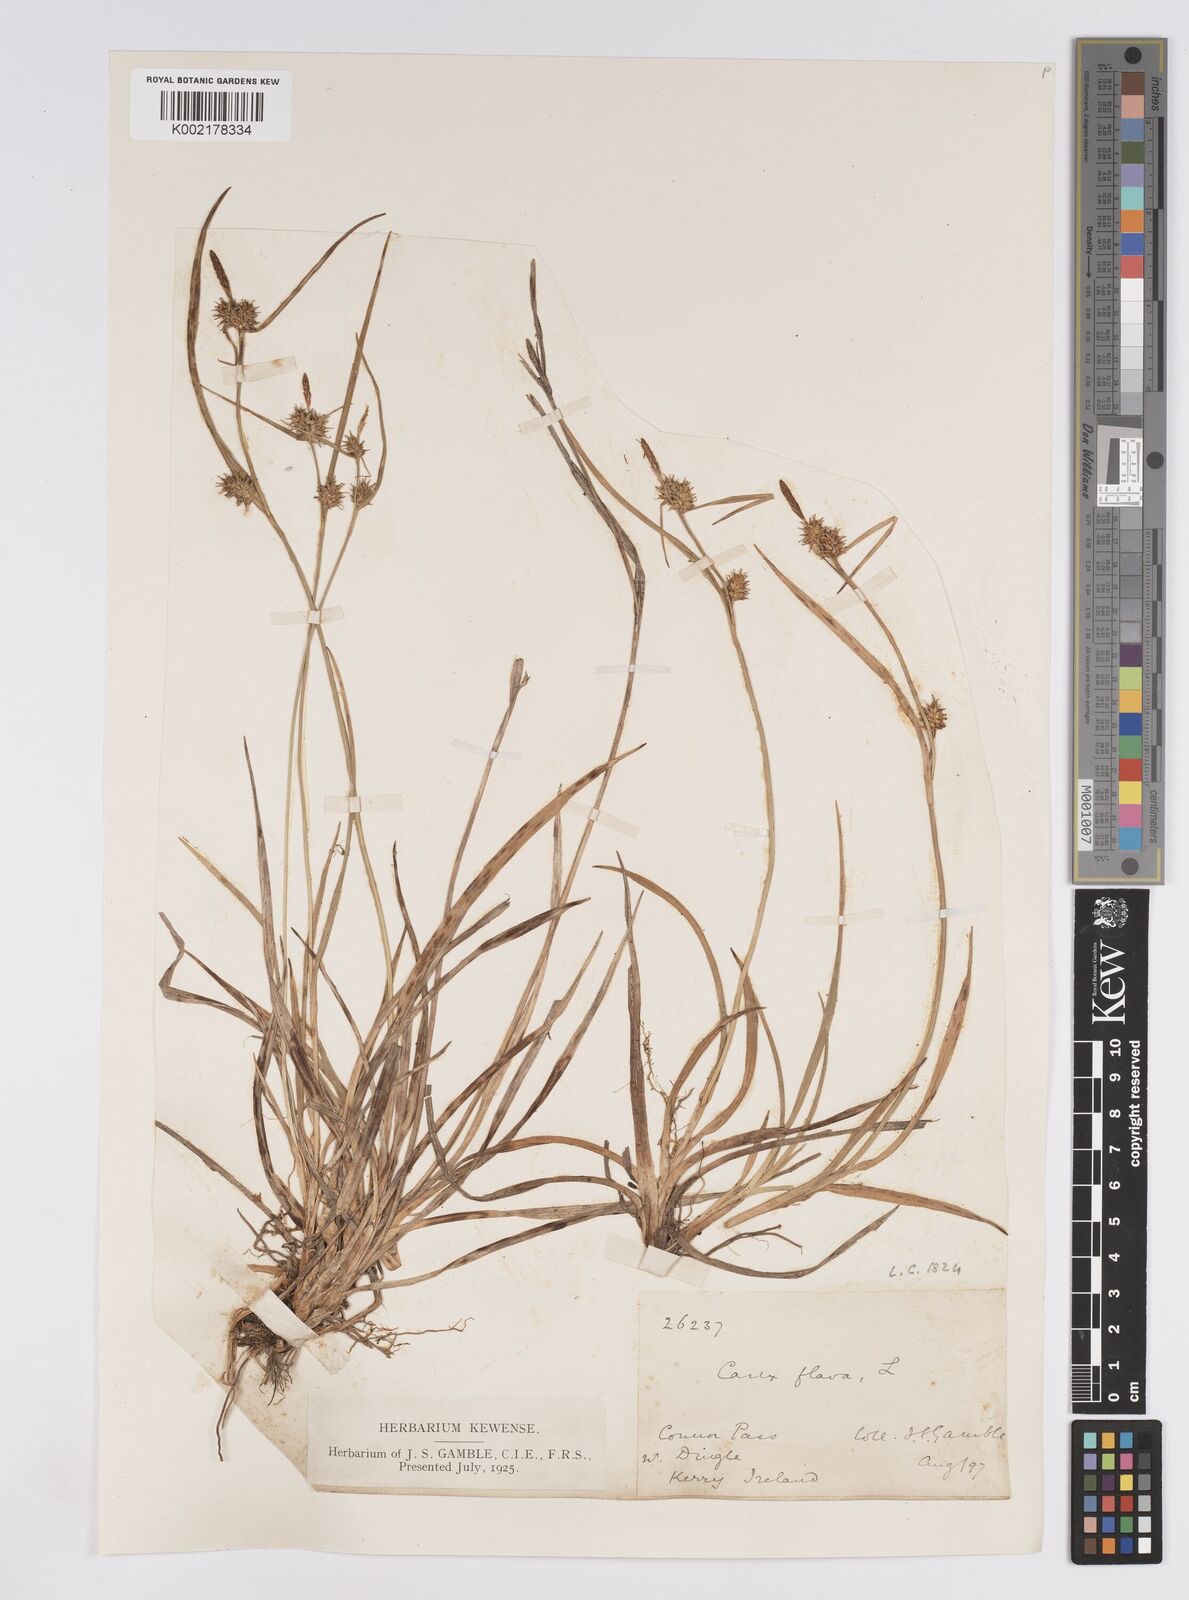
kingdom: Plantae
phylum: Tracheophyta
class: Liliopsida
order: Poales
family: Cyperaceae
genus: Carex
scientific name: Carex demissa
